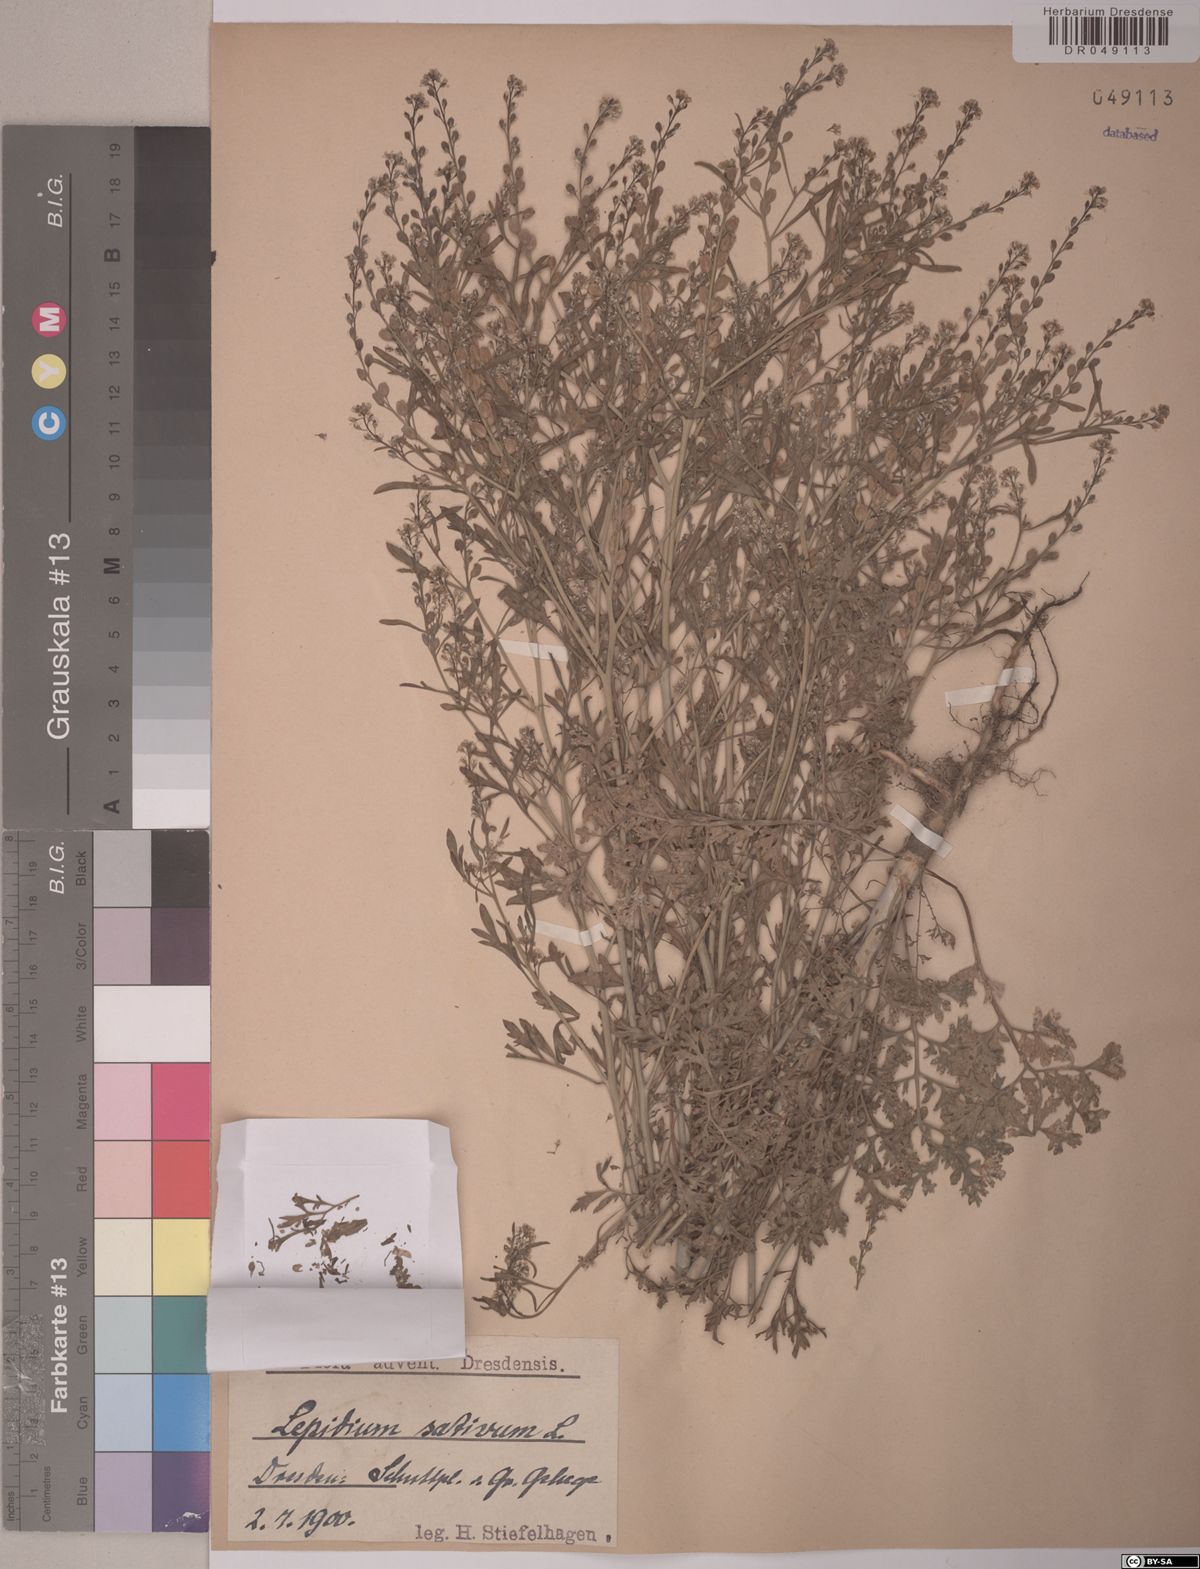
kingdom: Plantae
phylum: Tracheophyta
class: Magnoliopsida
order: Brassicales
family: Brassicaceae
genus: Lepidium
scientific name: Lepidium sativum
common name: Garden cress
